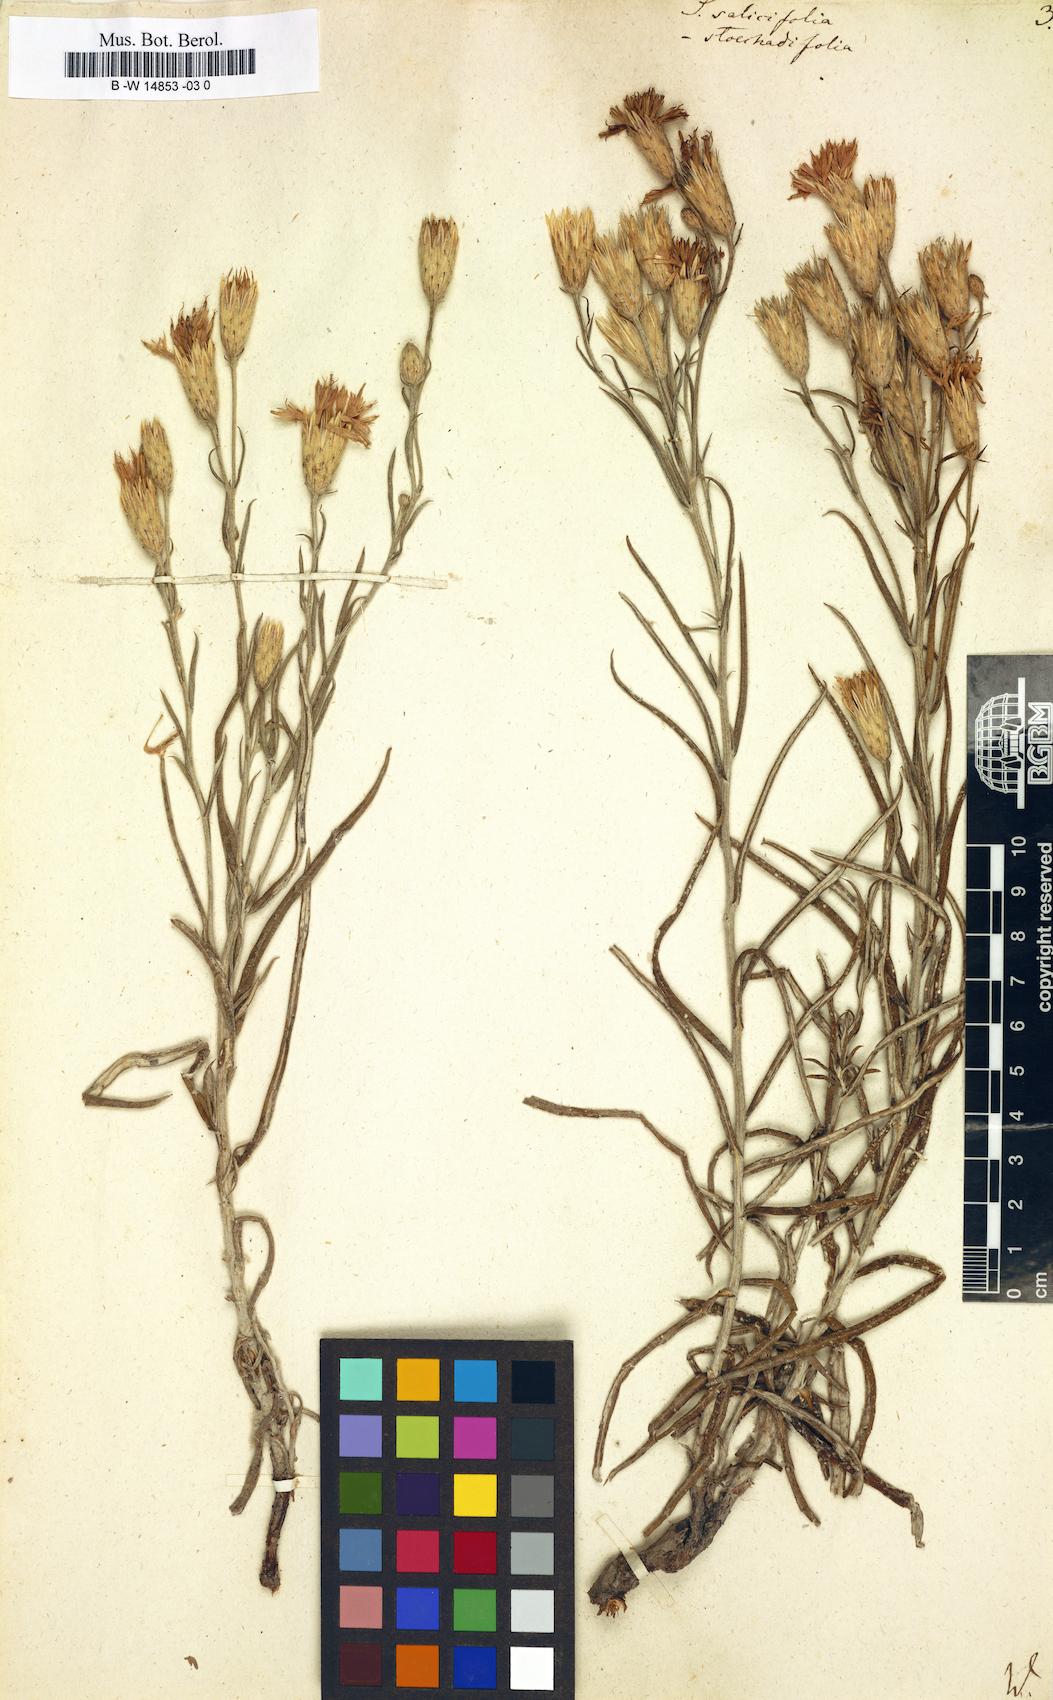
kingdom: Plantae
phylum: Tracheophyta
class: Magnoliopsida
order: Asterales
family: Asteraceae
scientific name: Asteraceae
